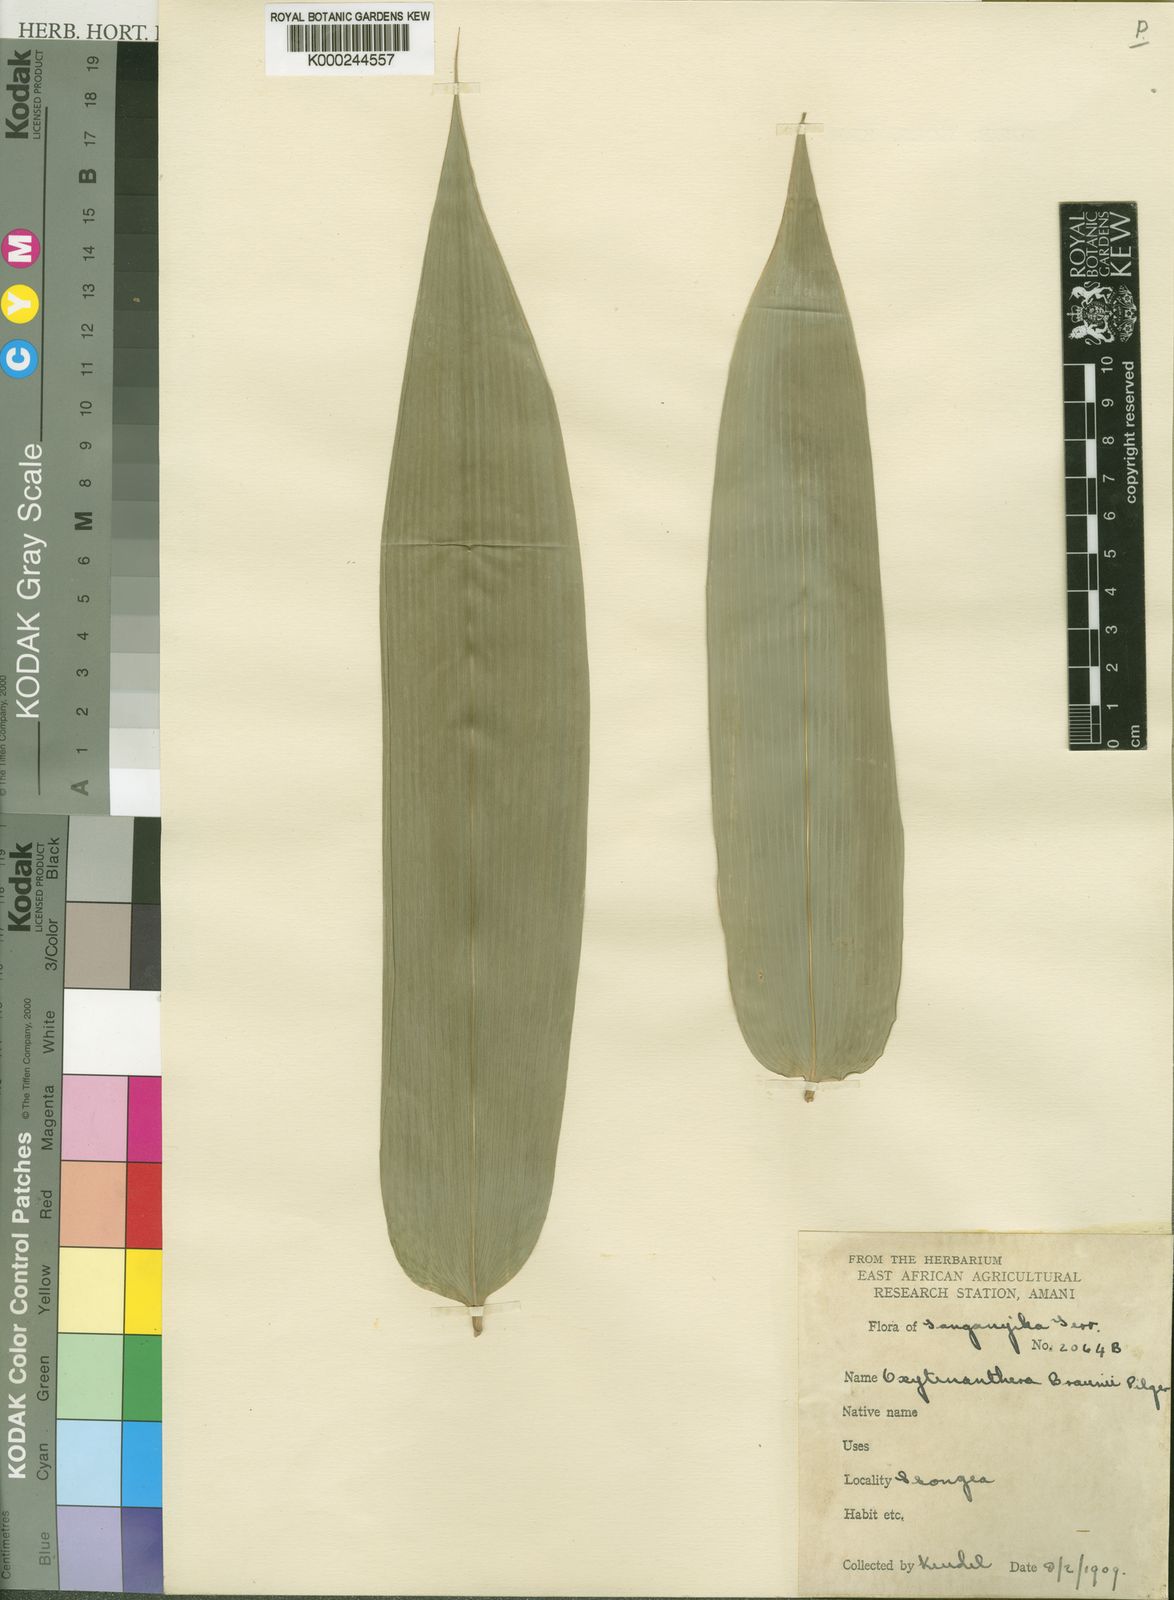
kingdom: Plantae
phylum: Tracheophyta
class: Liliopsida
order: Poales
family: Poaceae
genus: Oxytenanthera
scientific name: Oxytenanthera abyssinica
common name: Wine bamboo
